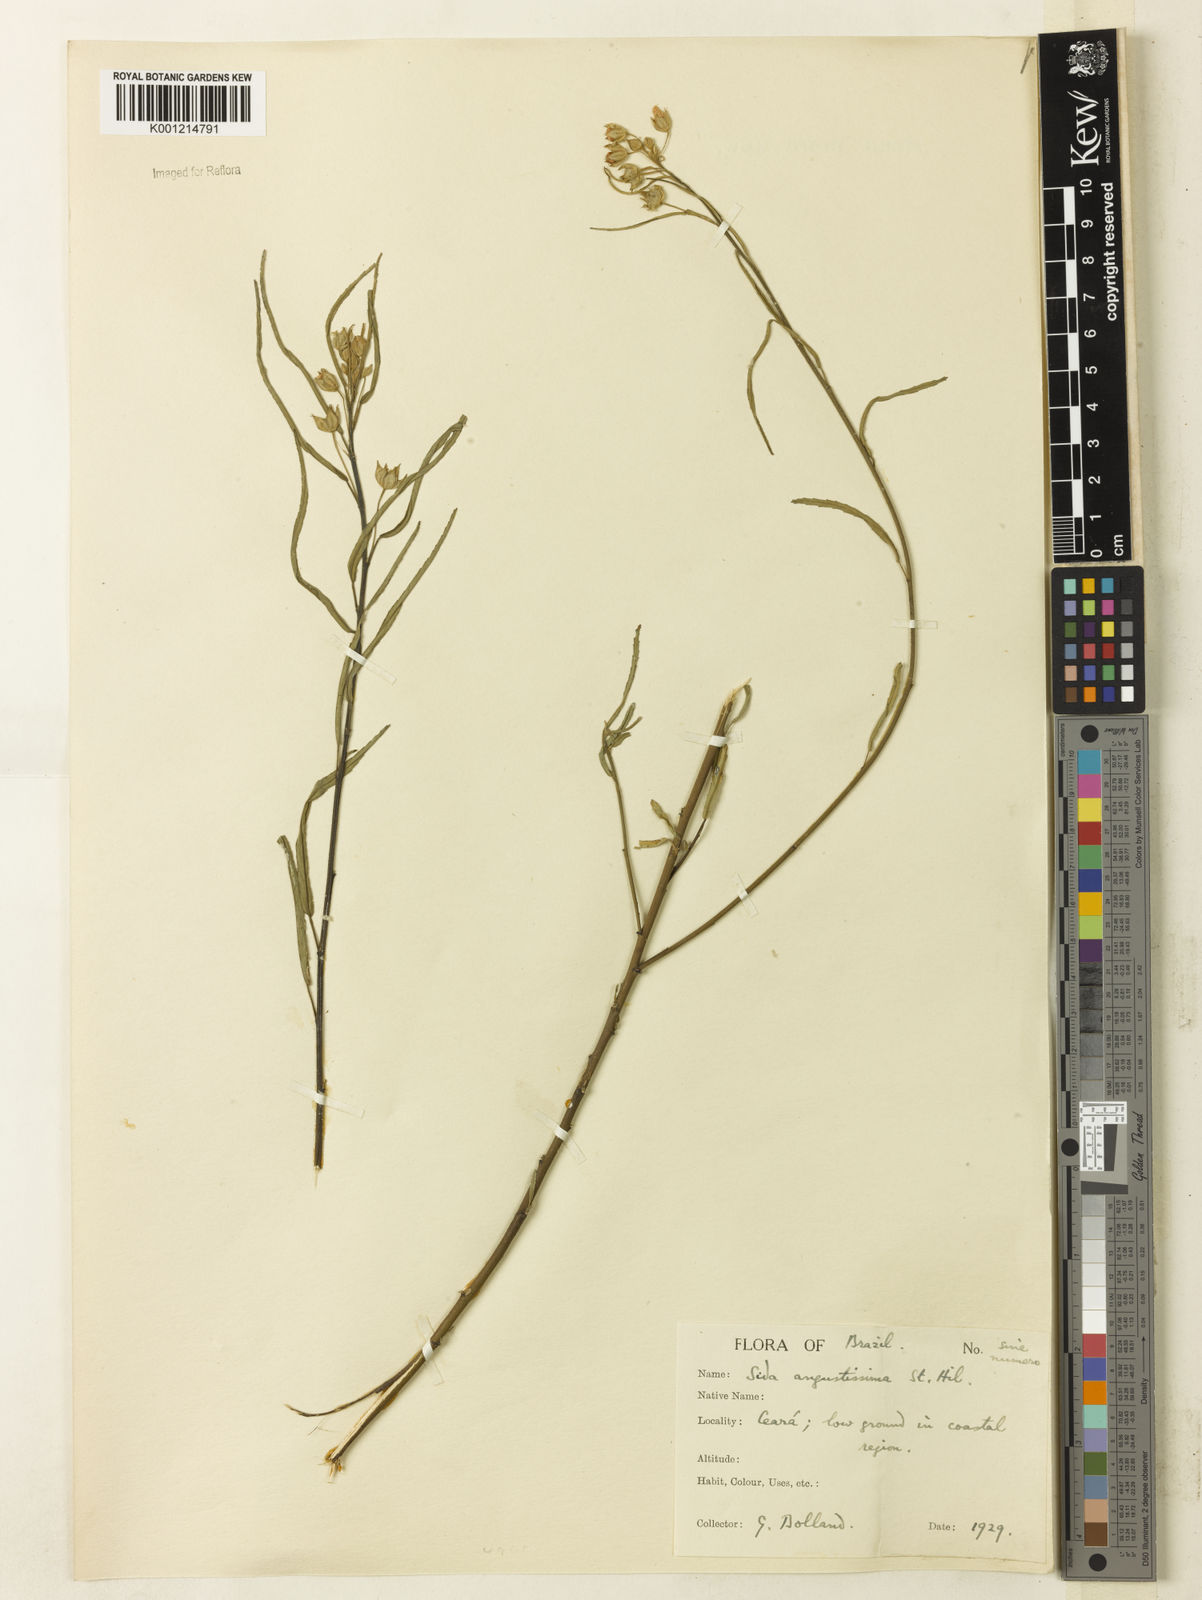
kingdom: Plantae
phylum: Tracheophyta
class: Magnoliopsida
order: Malvales
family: Malvaceae
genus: Sida
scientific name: Sida angustissima
